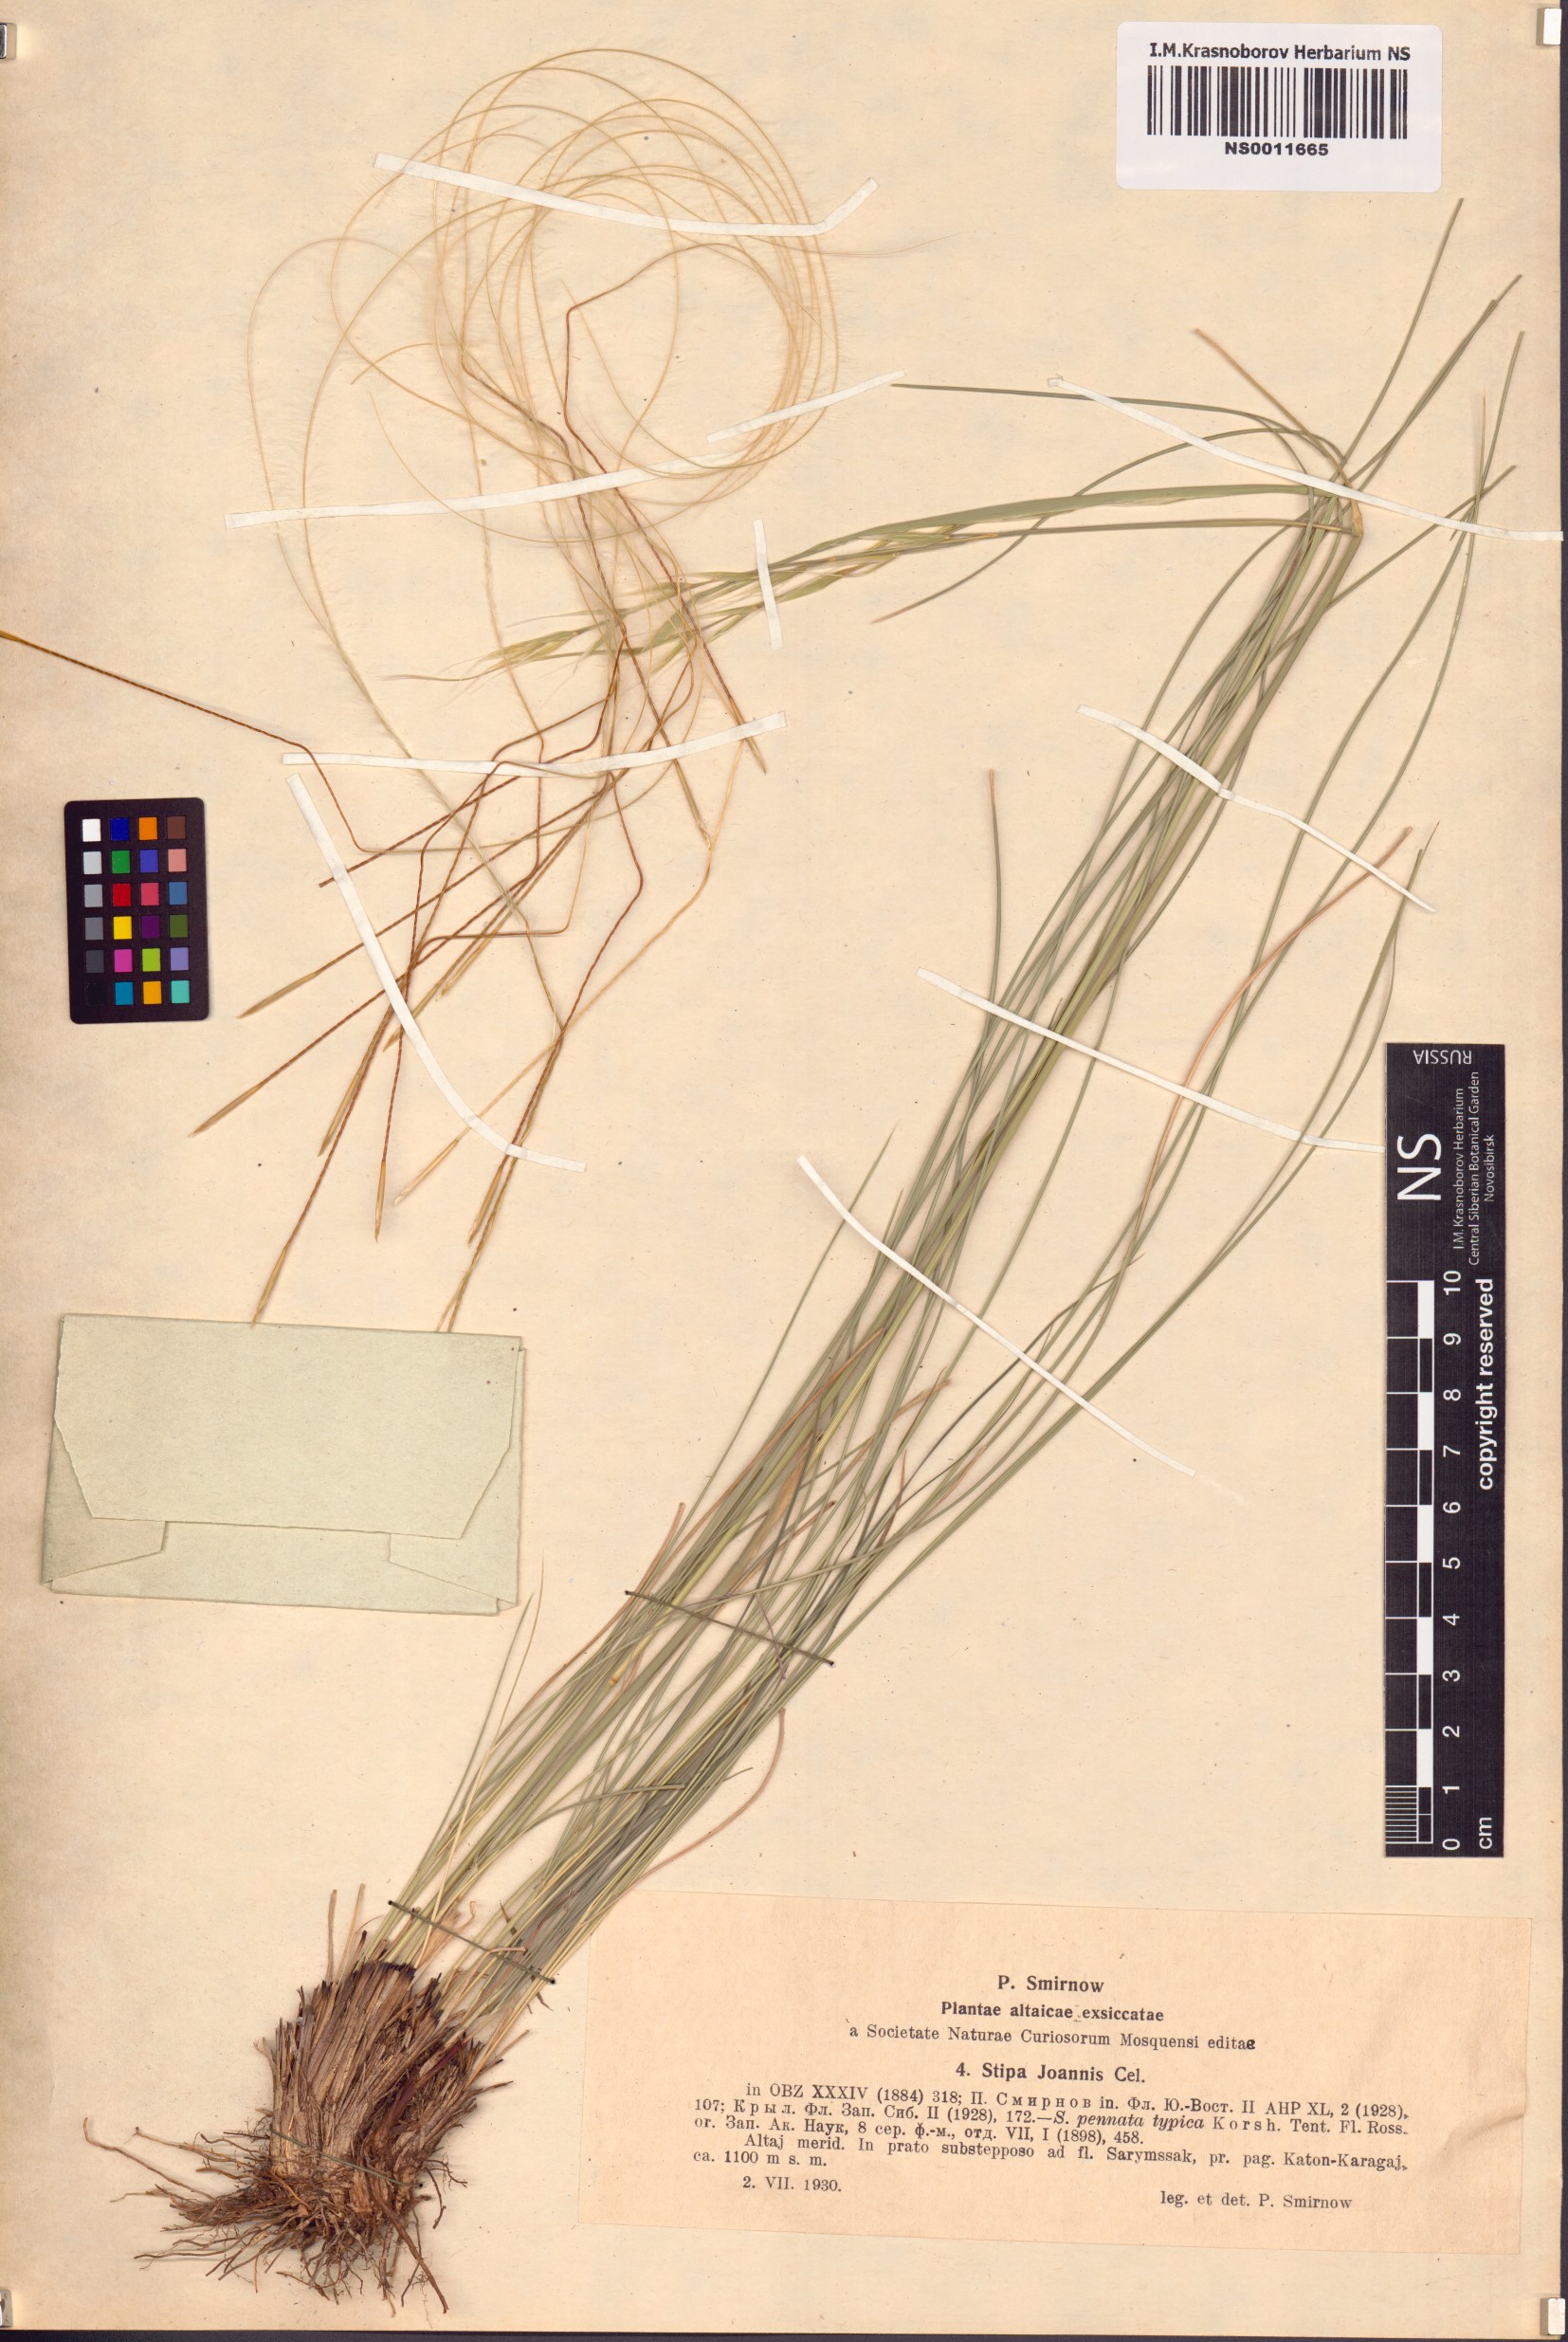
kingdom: Plantae
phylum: Tracheophyta
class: Liliopsida
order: Poales
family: Poaceae
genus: Stipa
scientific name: Stipa pennata
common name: European feather grass
